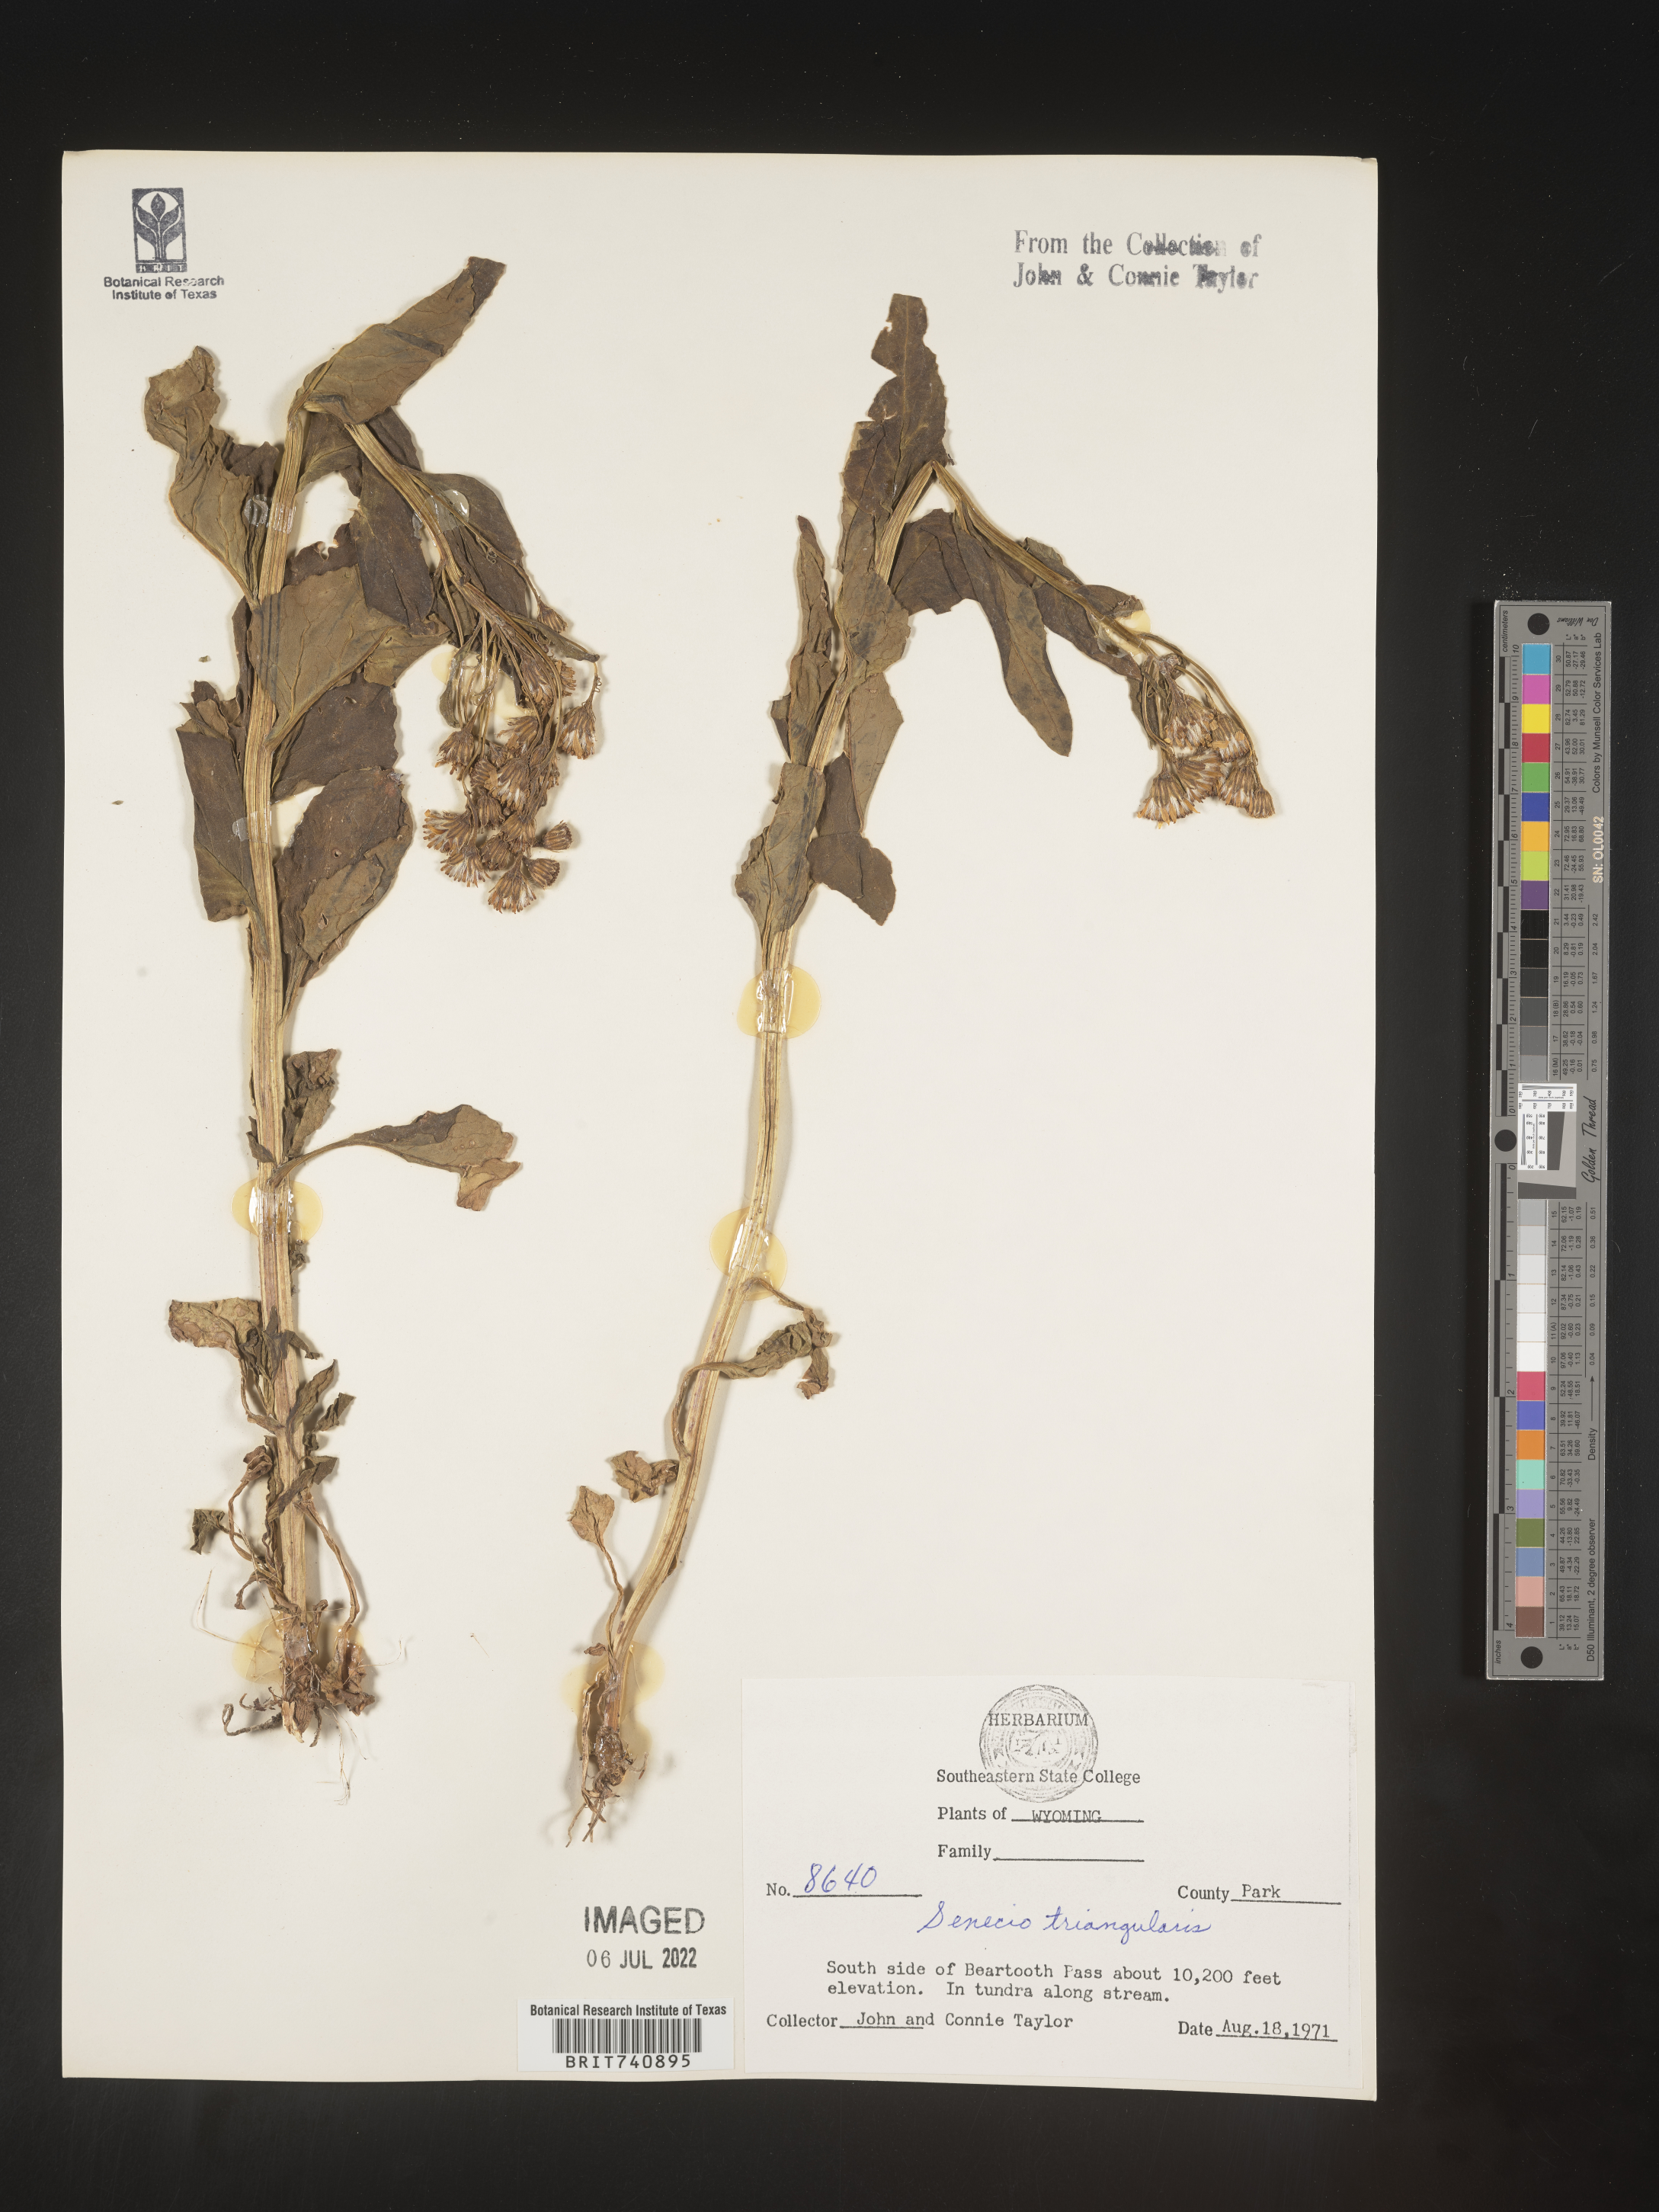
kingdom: Plantae
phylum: Tracheophyta
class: Magnoliopsida
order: Asterales
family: Asteraceae
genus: Senecio
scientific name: Senecio triangularis
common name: Arrowleaf butterweed
